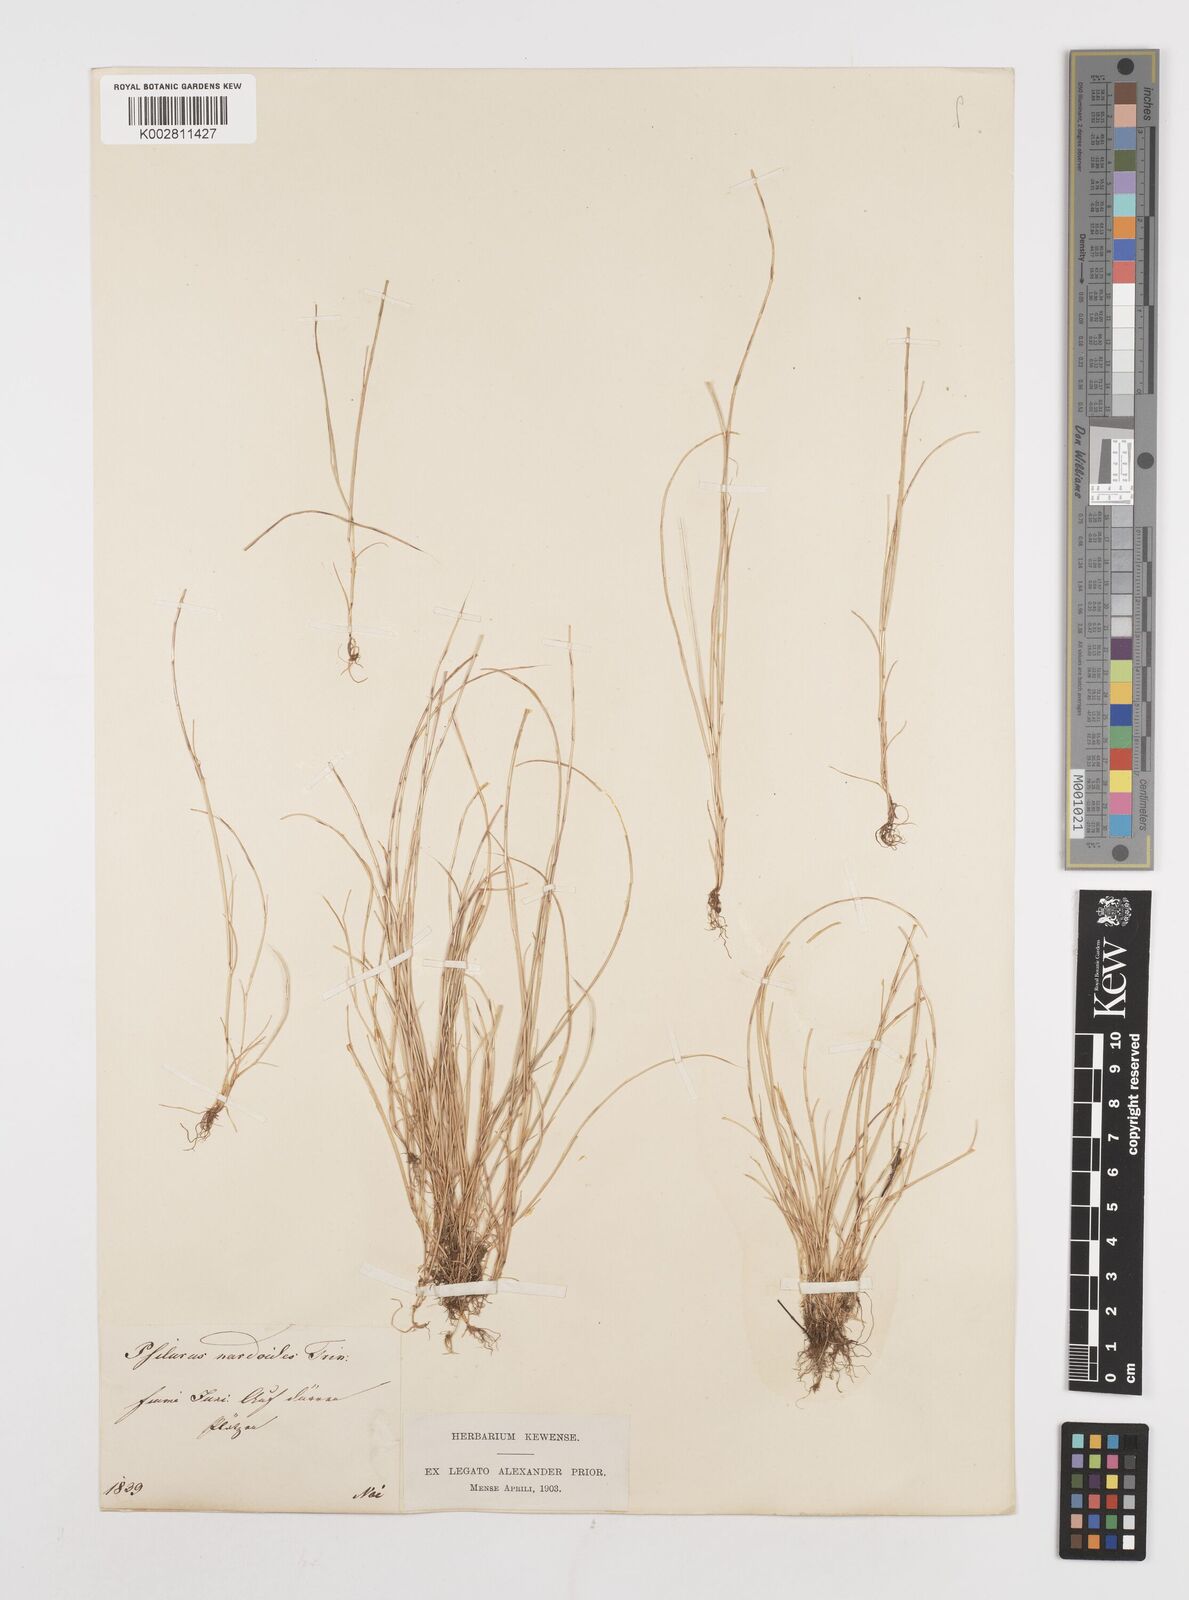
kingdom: Plantae
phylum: Tracheophyta
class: Liliopsida
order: Poales
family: Poaceae
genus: Festuca
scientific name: Festuca incurva
